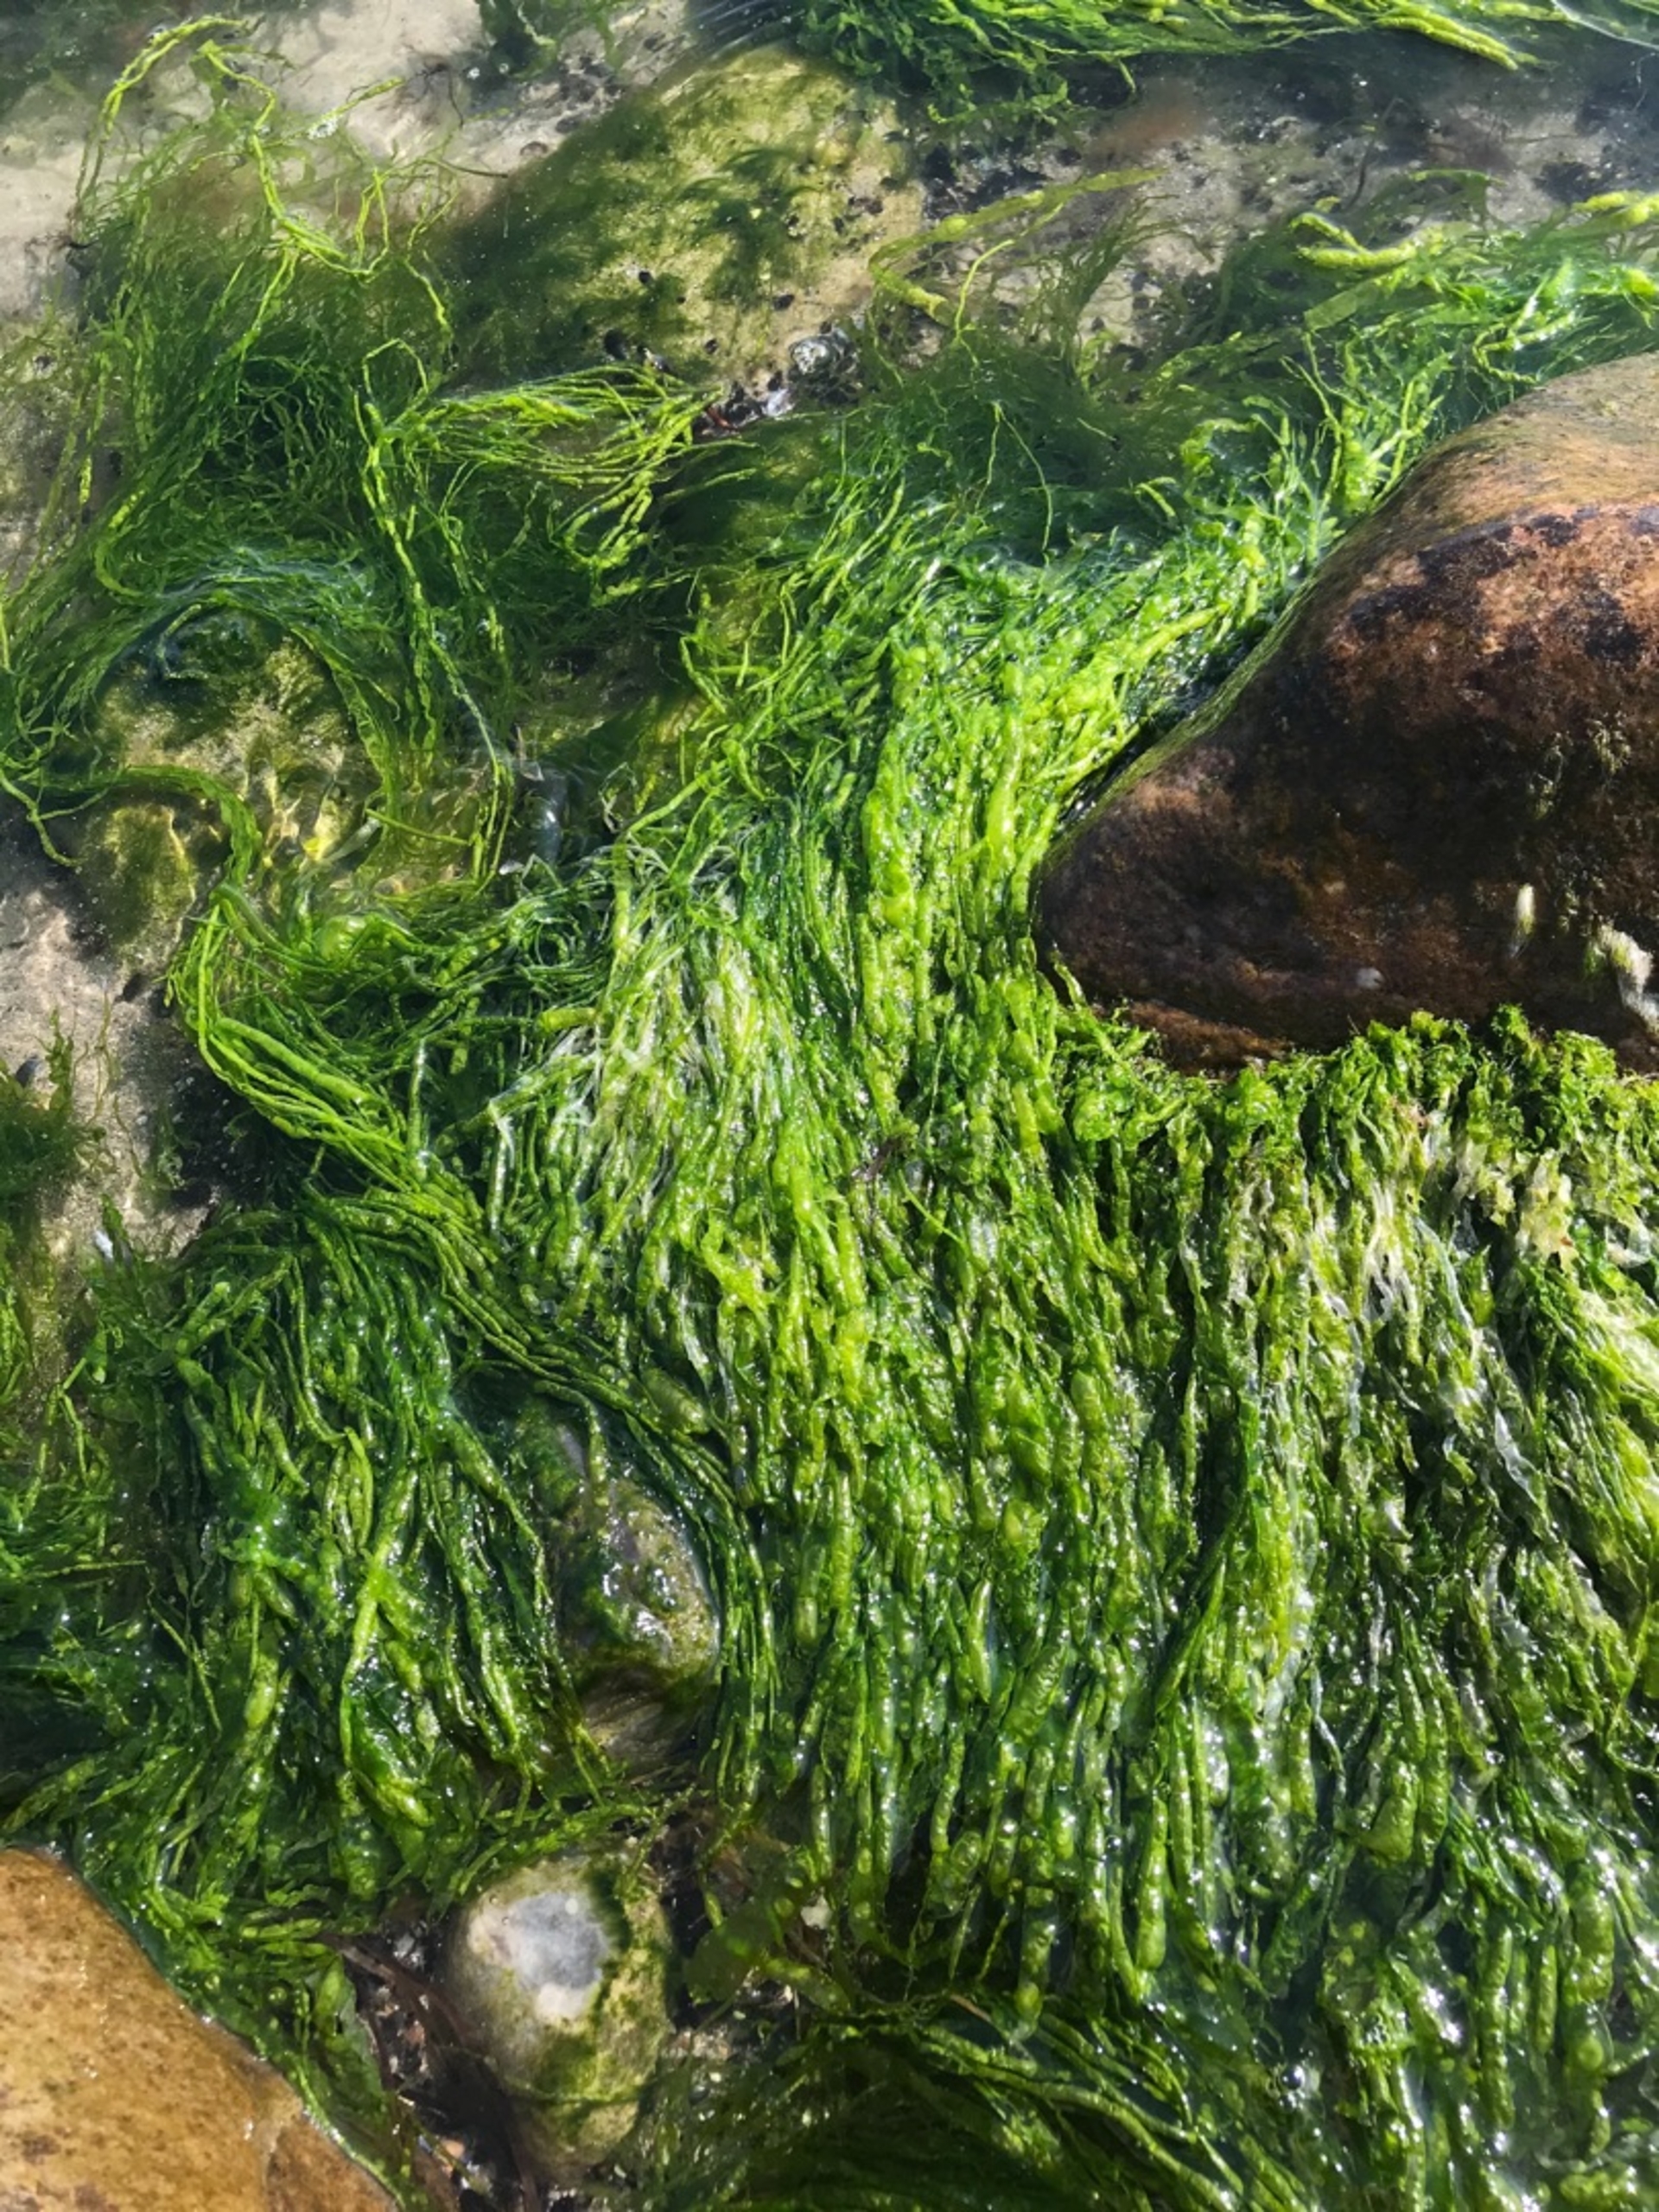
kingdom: Plantae
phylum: Chlorophyta
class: Ulvophyceae
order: Ulvales
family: Ulvaceae
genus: Ulva
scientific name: Ulva
